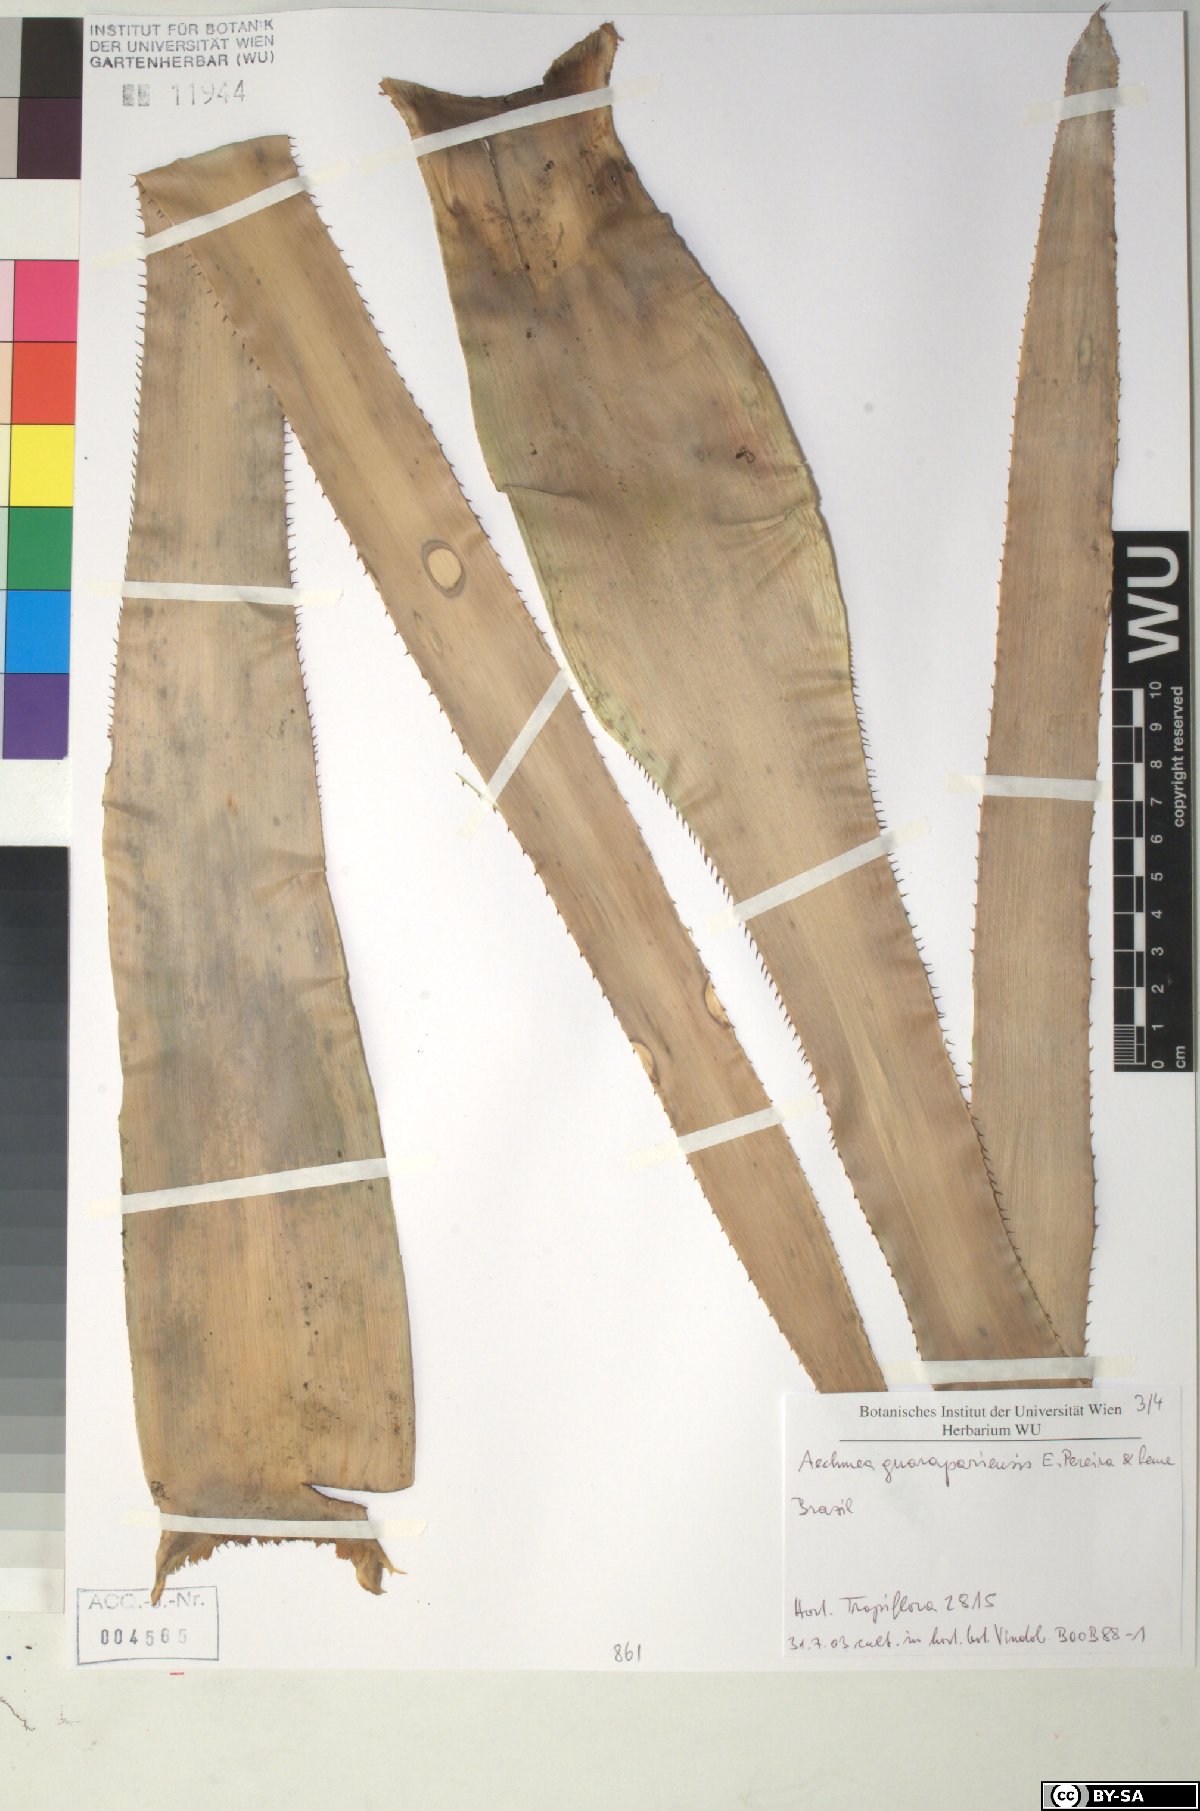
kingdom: Plantae
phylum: Tracheophyta
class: Liliopsida
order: Poales
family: Bromeliaceae
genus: Aechmea
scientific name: Aechmea roberto-seidelii
